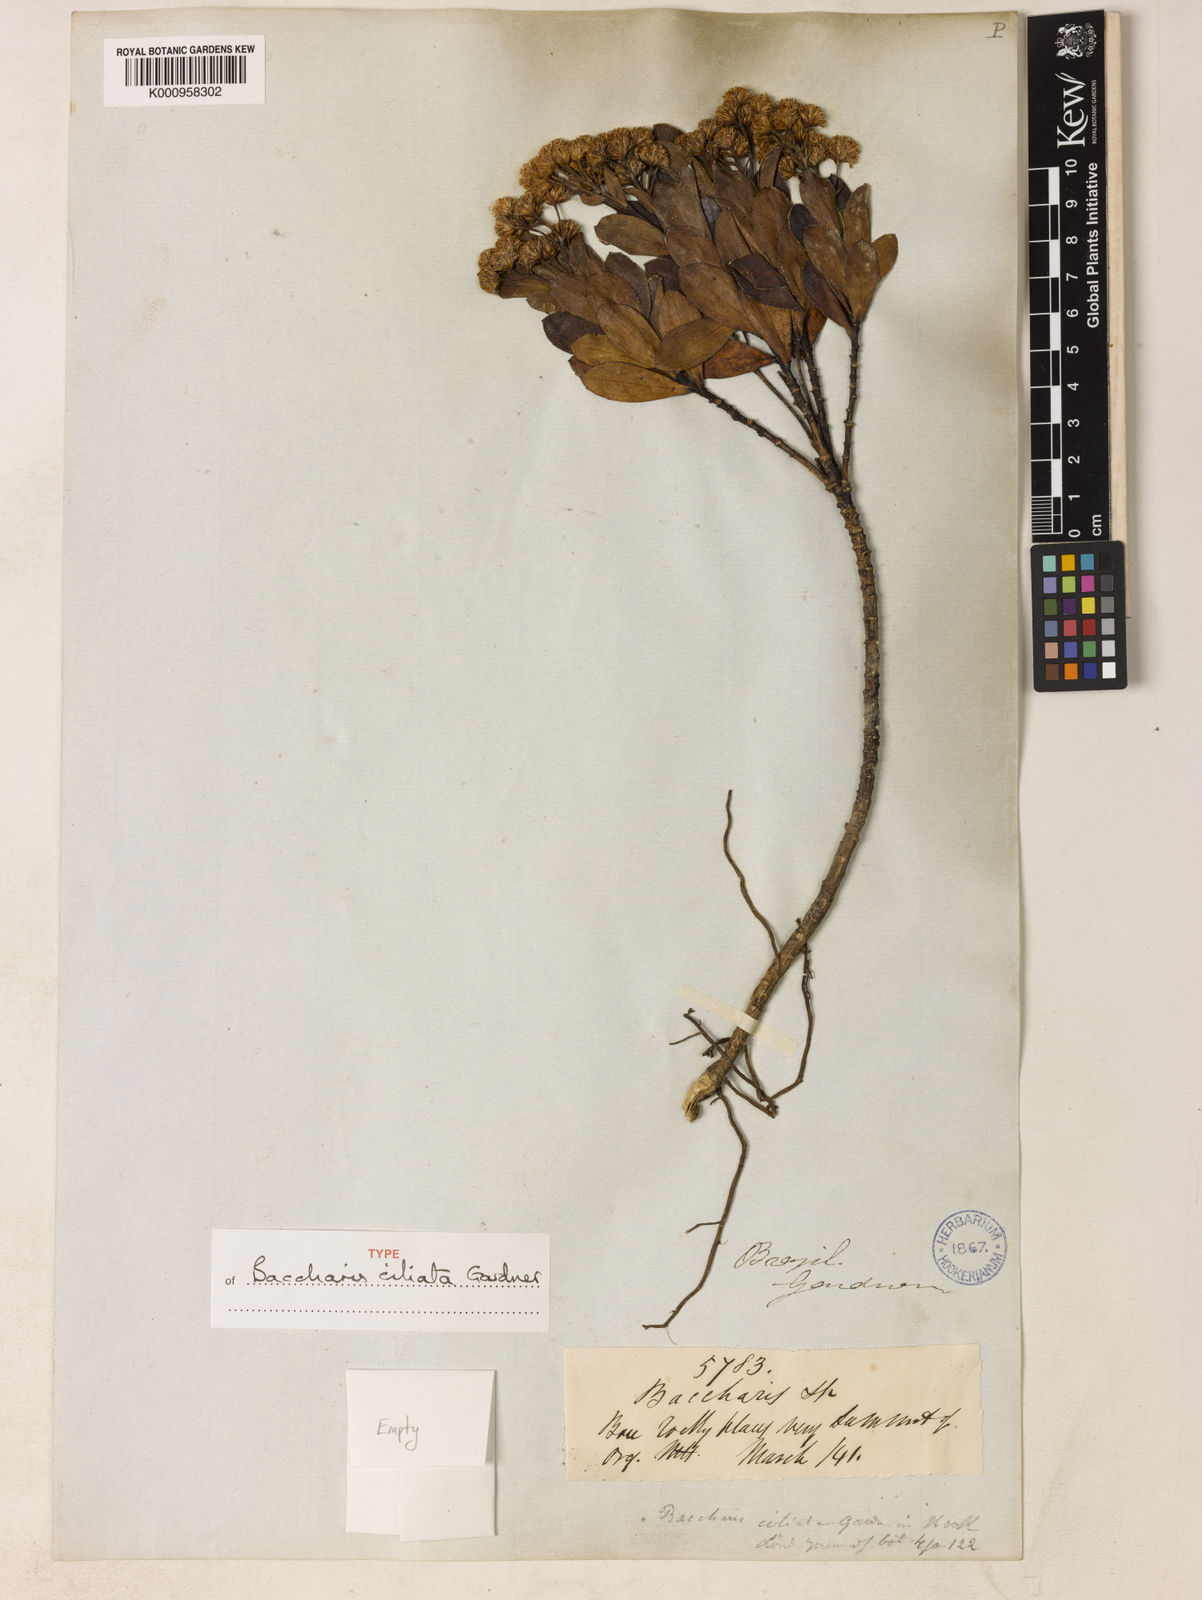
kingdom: Plantae
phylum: Tracheophyta
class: Magnoliopsida
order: Asterales
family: Asteraceae
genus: Baccharis
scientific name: Baccharis ciliata
